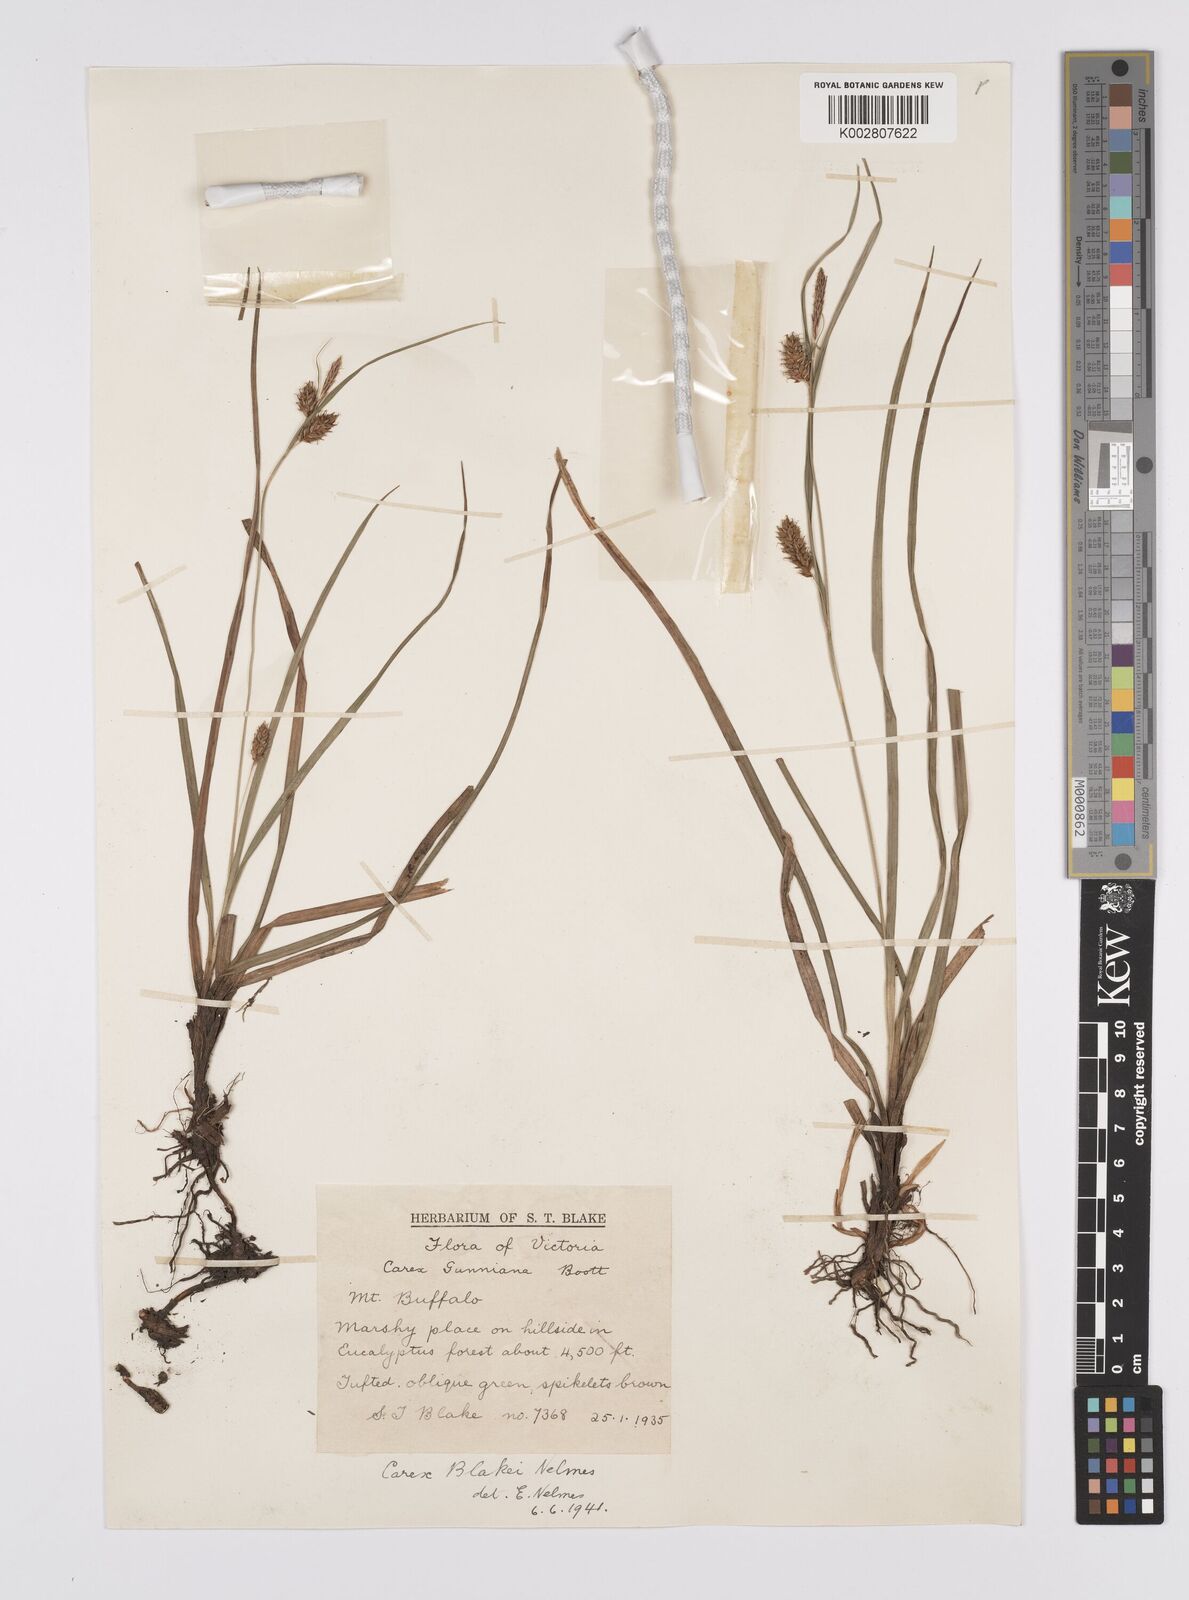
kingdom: Plantae
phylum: Tracheophyta
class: Liliopsida
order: Poales
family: Cyperaceae
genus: Carex
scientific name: Carex blakei
